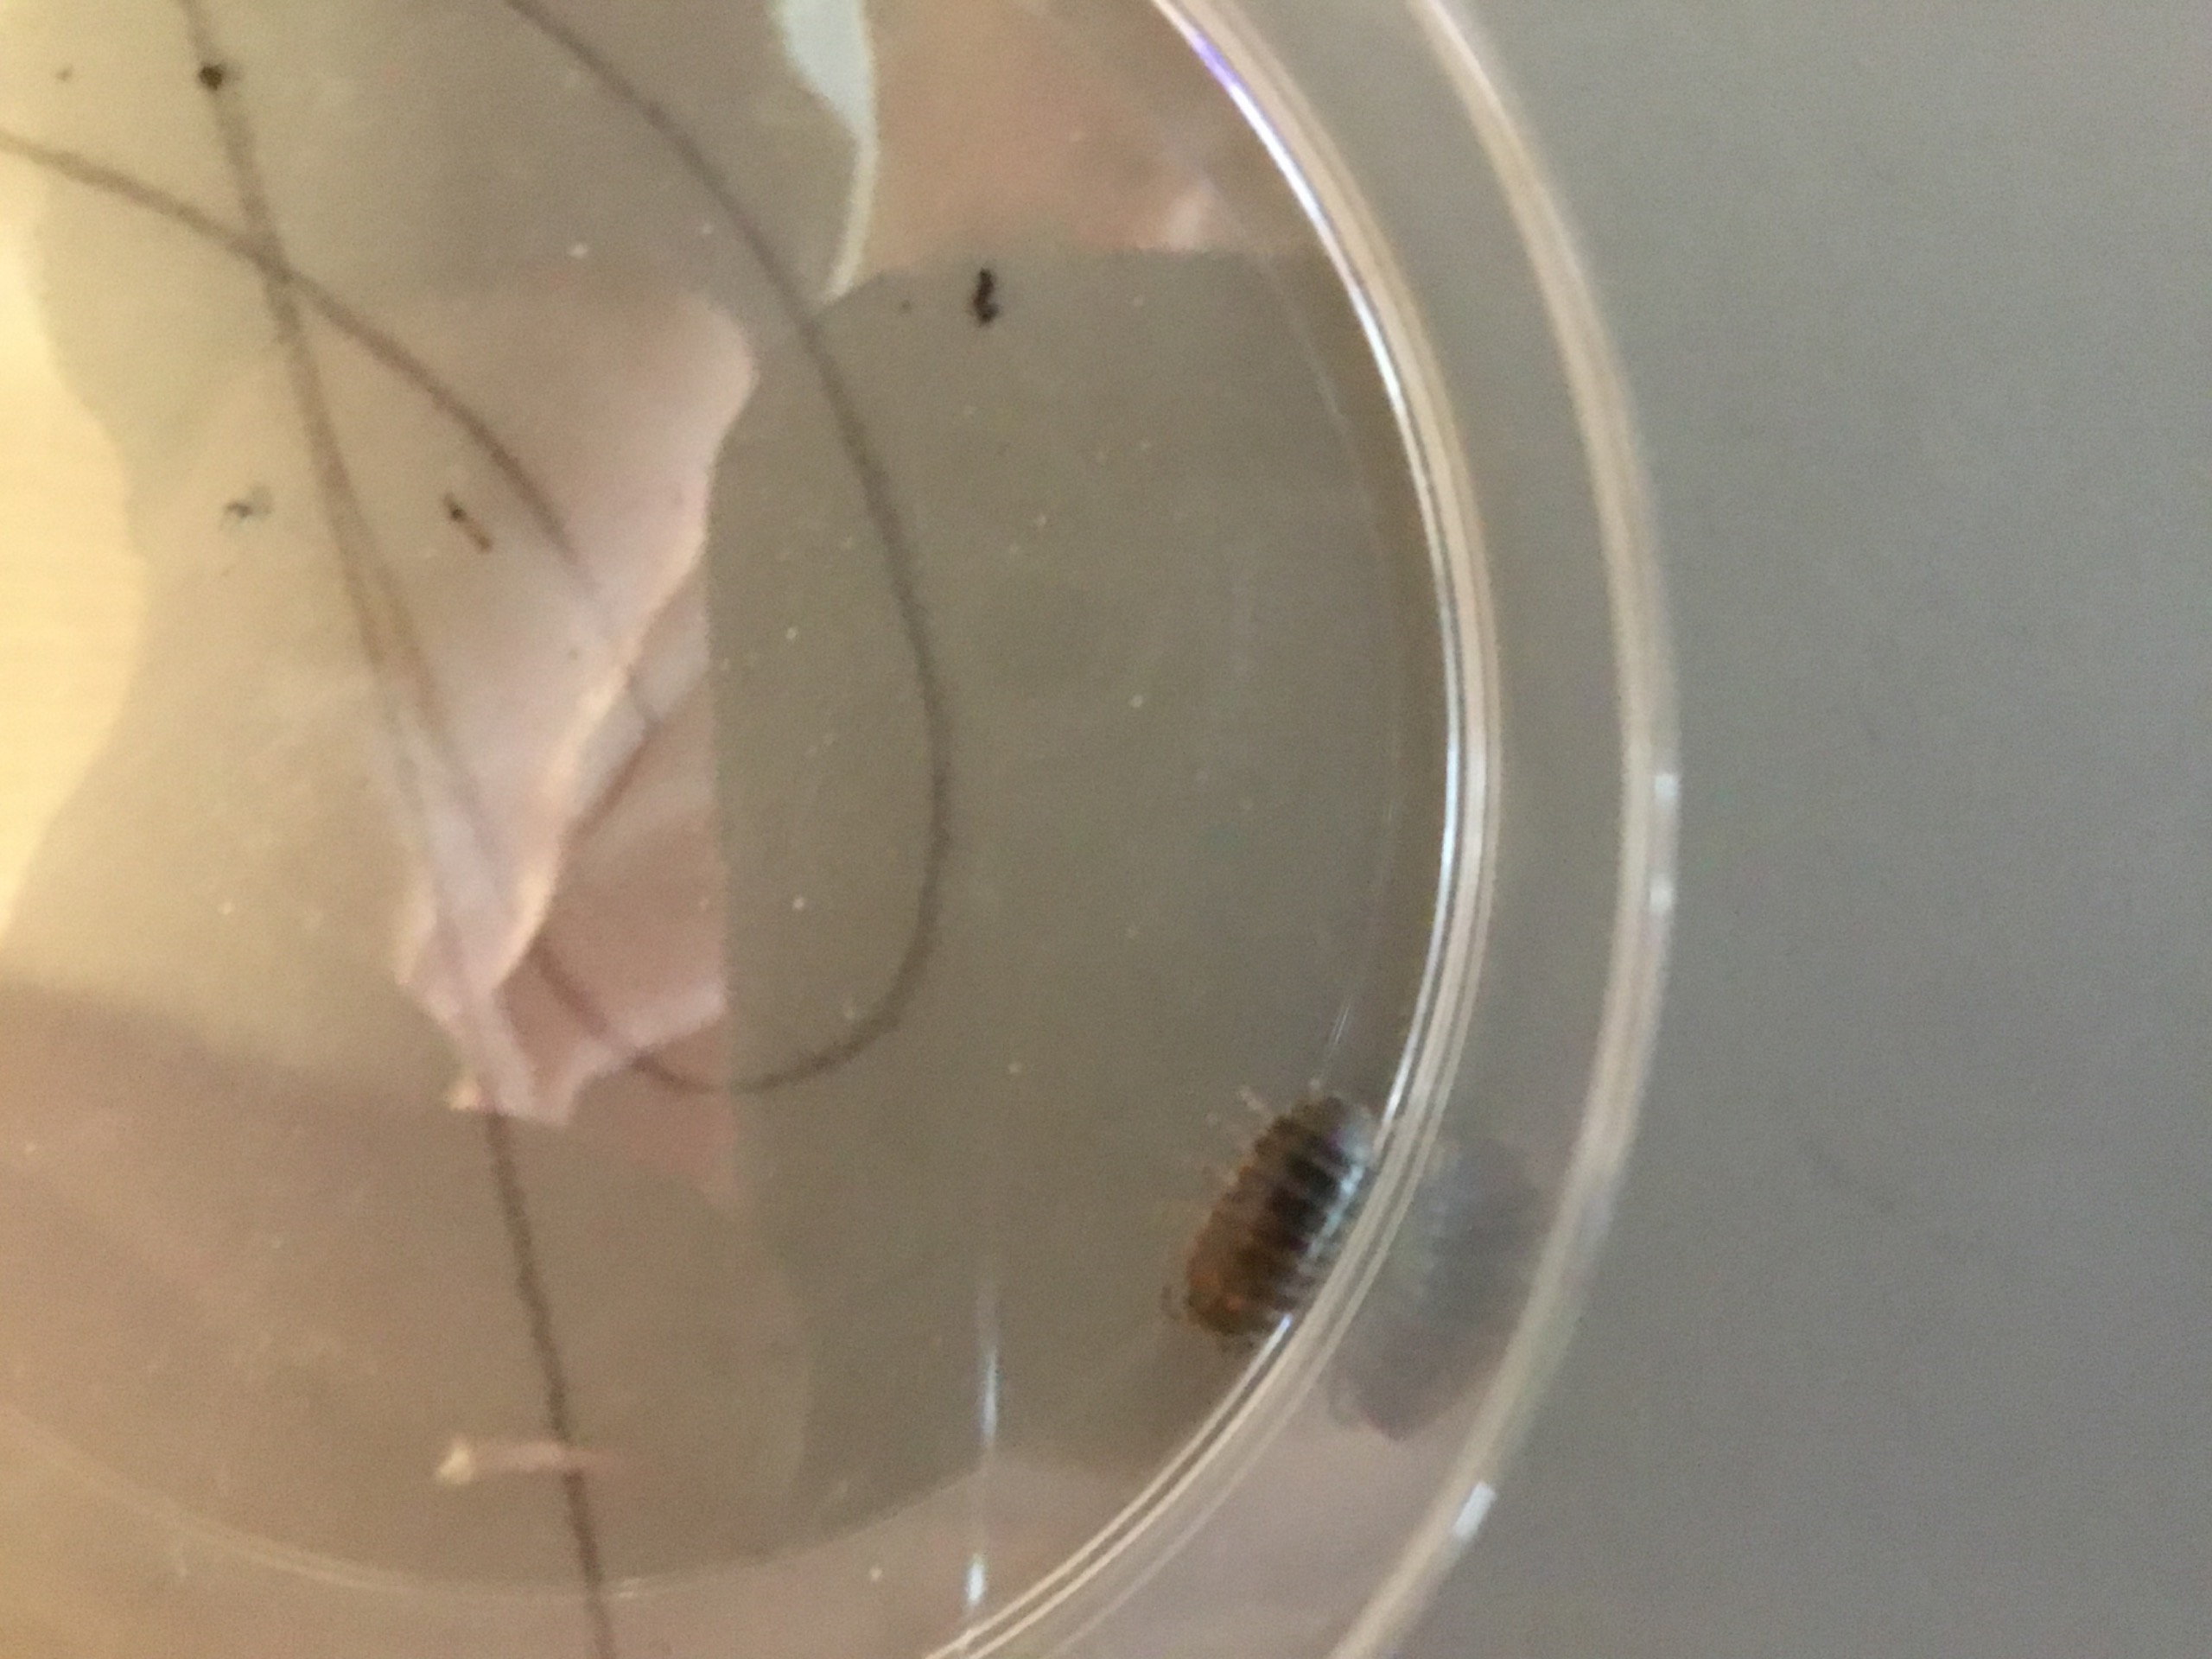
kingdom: Animalia
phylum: Arthropoda
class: Malacostraca
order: Isopoda
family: Armadillidiidae
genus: Armadillidium
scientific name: Armadillidium vulgare
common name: Almindelig kuglebænkebider
